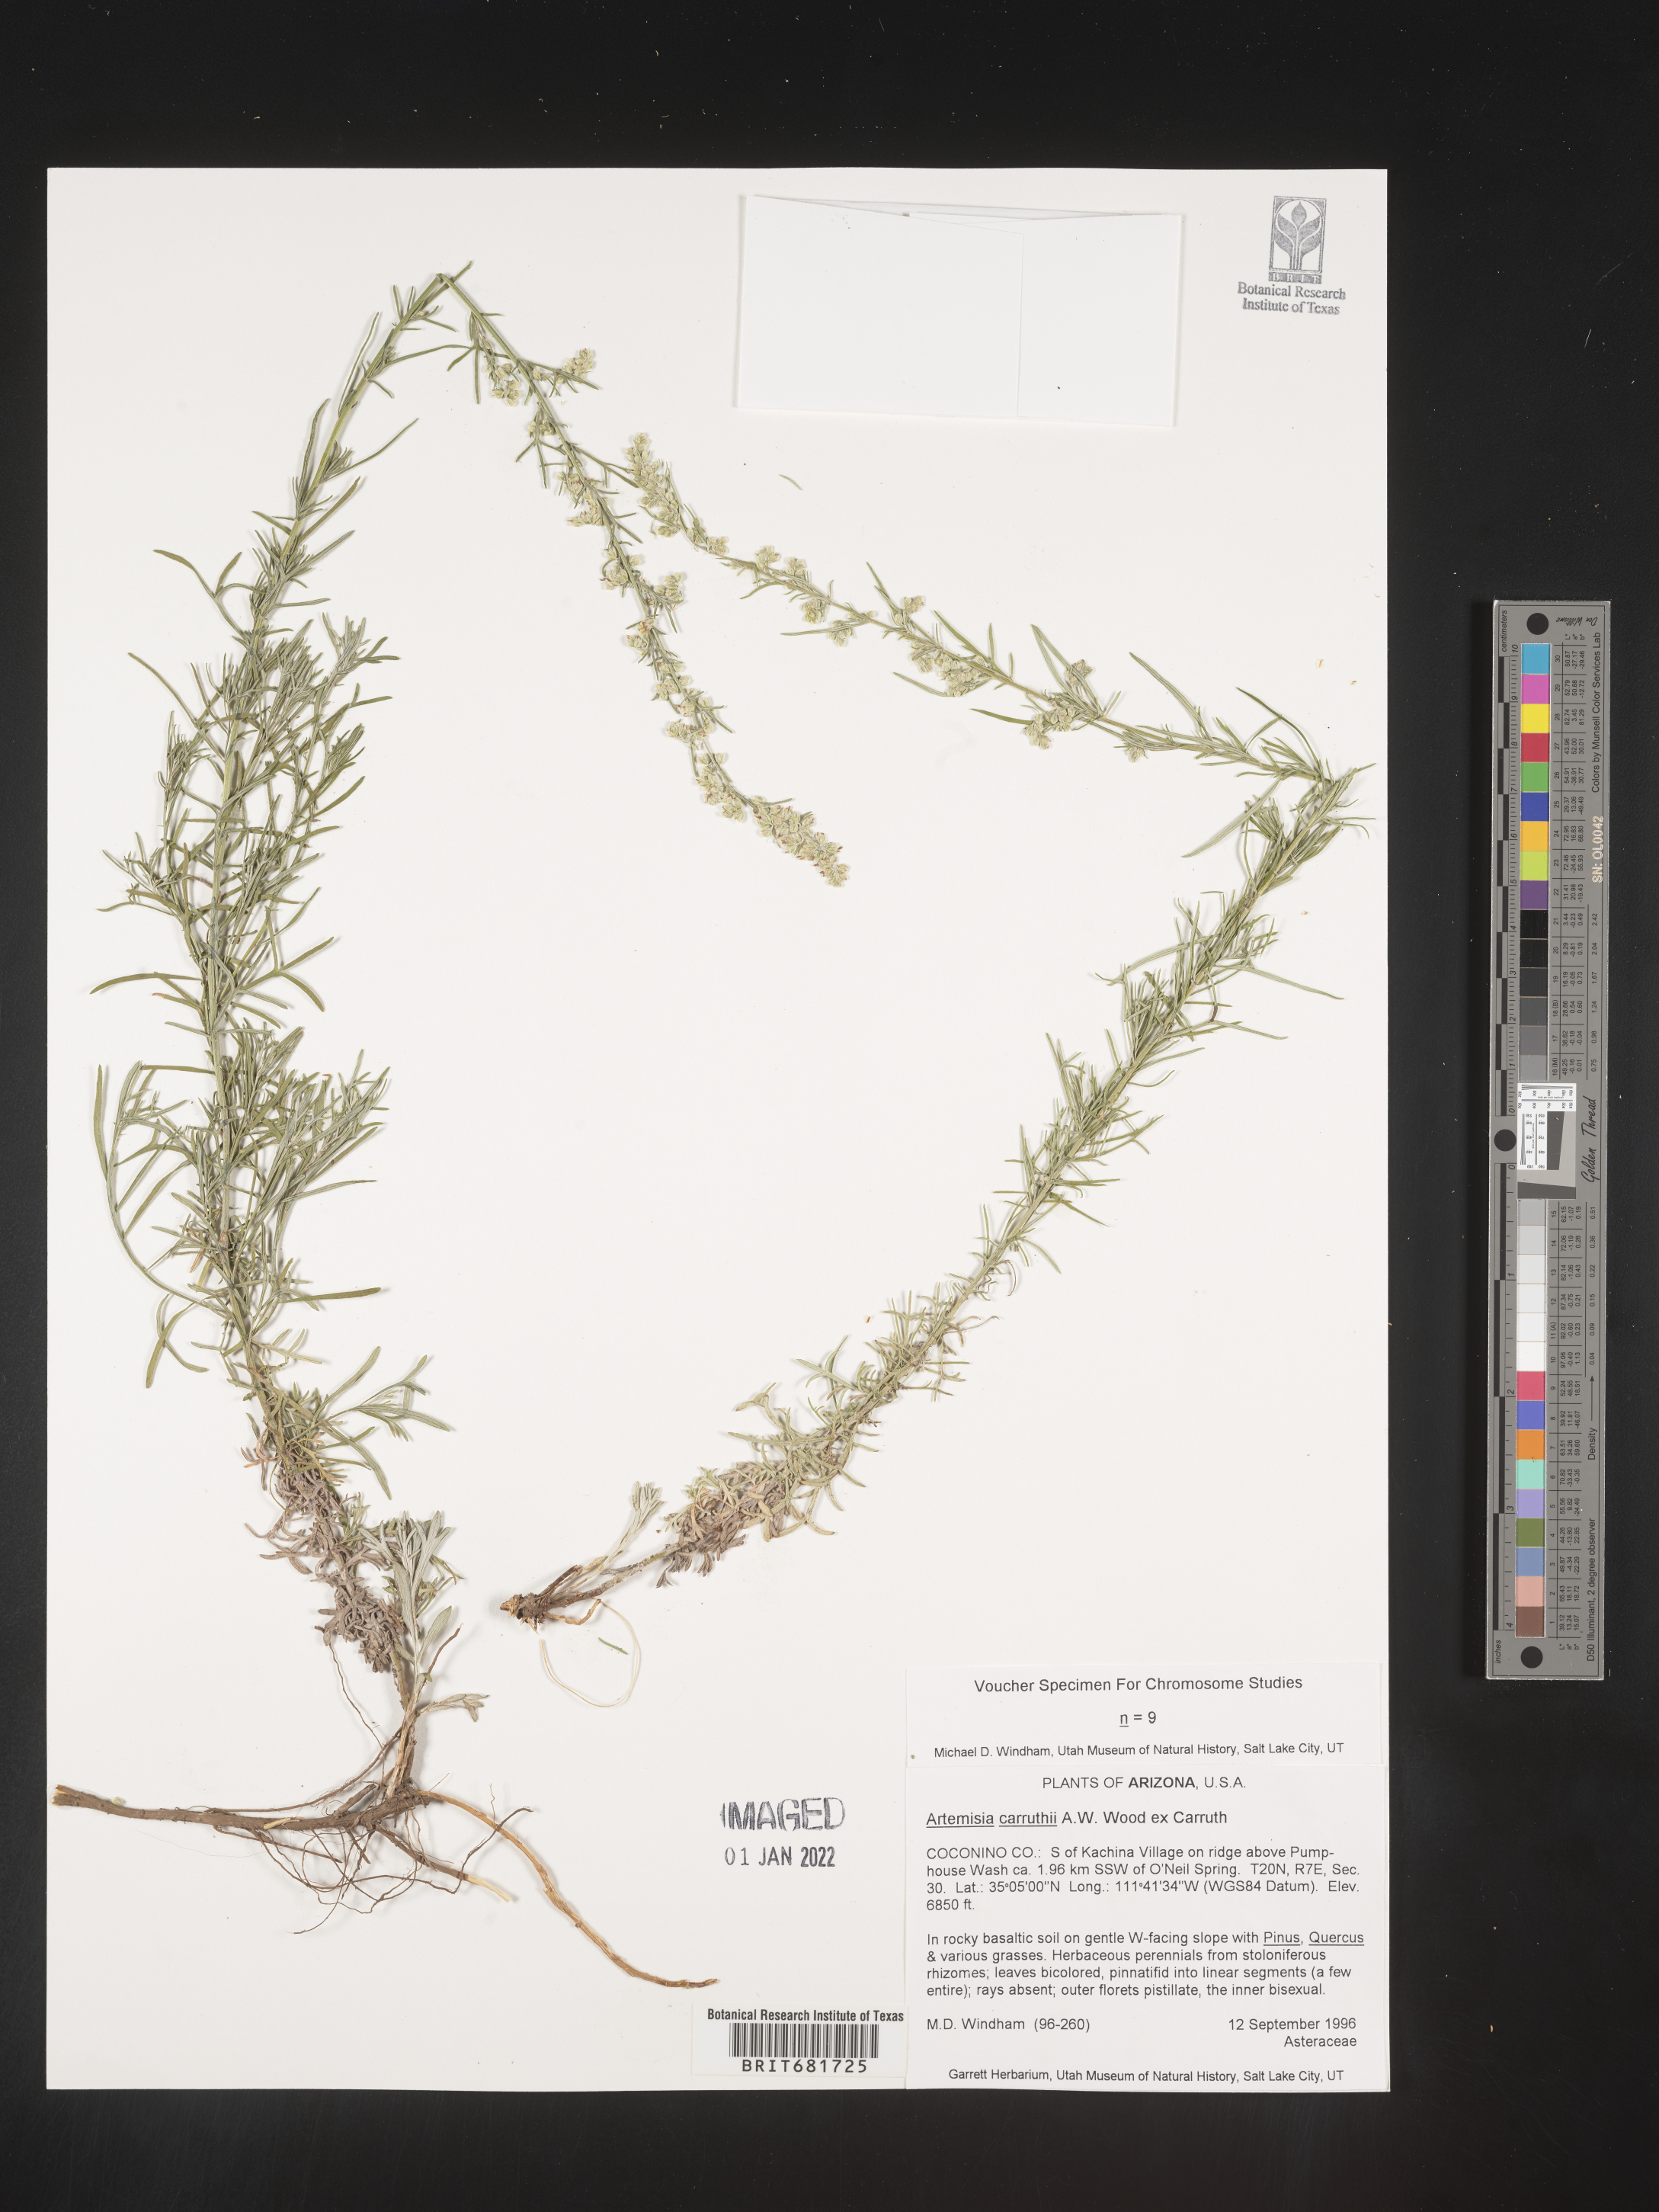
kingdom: Plantae
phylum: Tracheophyta
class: Magnoliopsida
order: Asterales
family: Asteraceae
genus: Artemisia
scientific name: Artemisia carruthii
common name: Carruth wormwood
